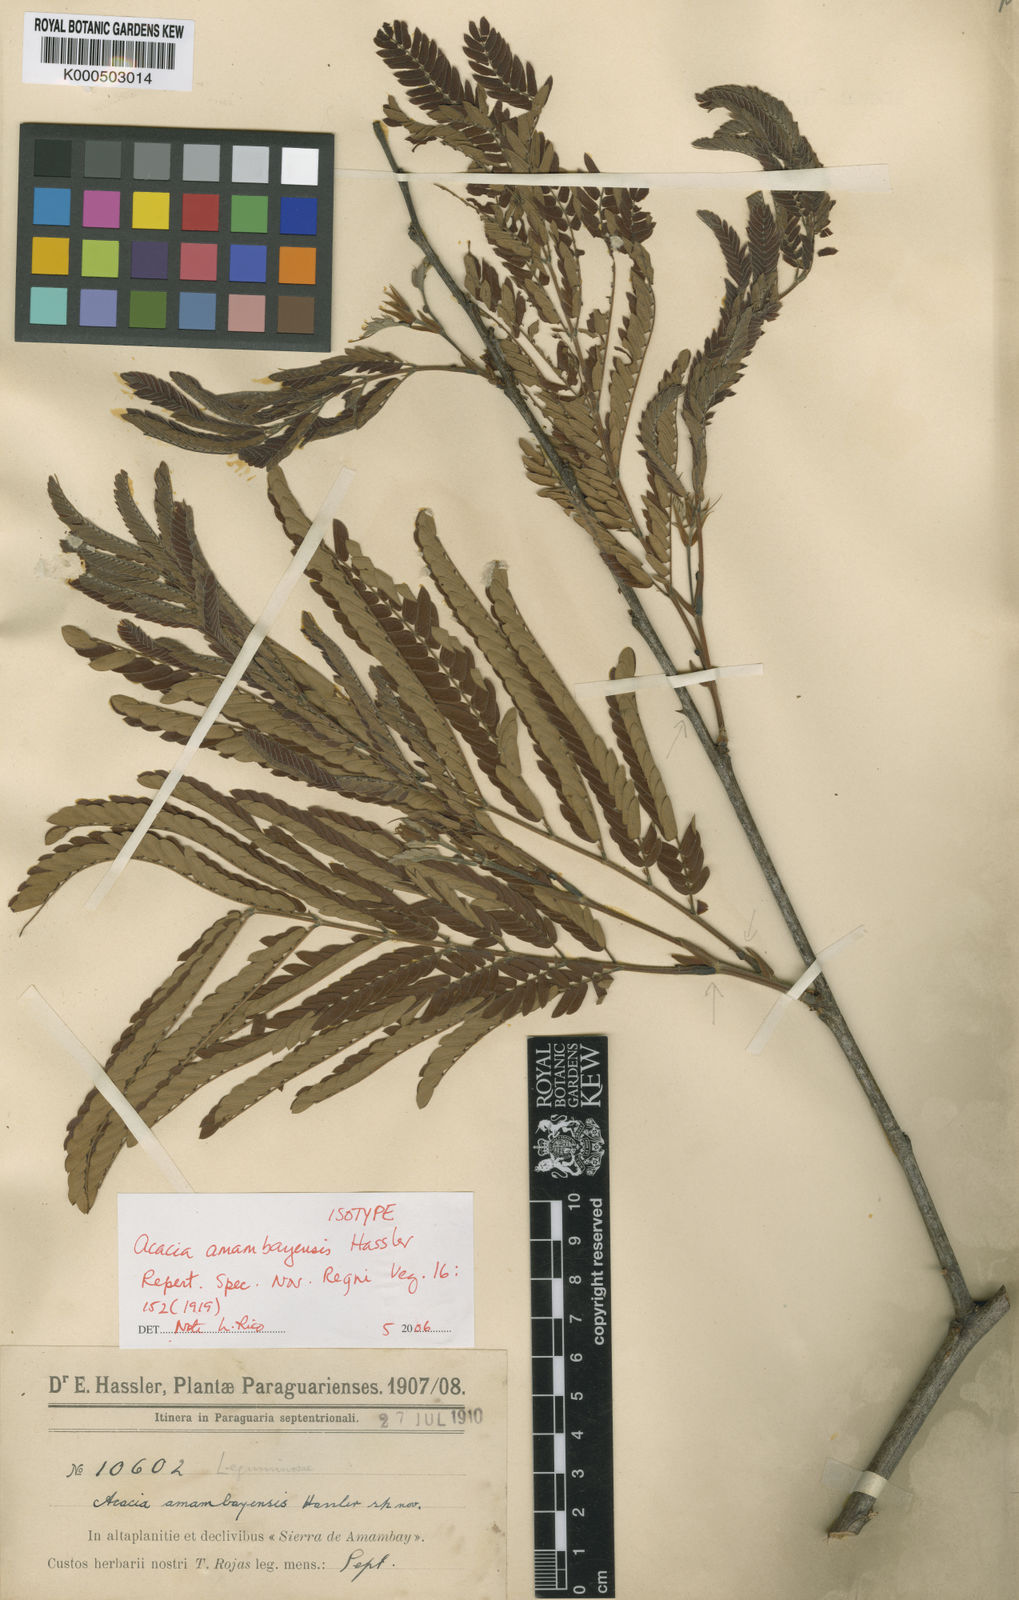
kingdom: Plantae
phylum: Tracheophyta
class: Magnoliopsida
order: Fabales
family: Fabaceae
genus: Senegalia
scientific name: Senegalia polyphylla
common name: White-tamarind
